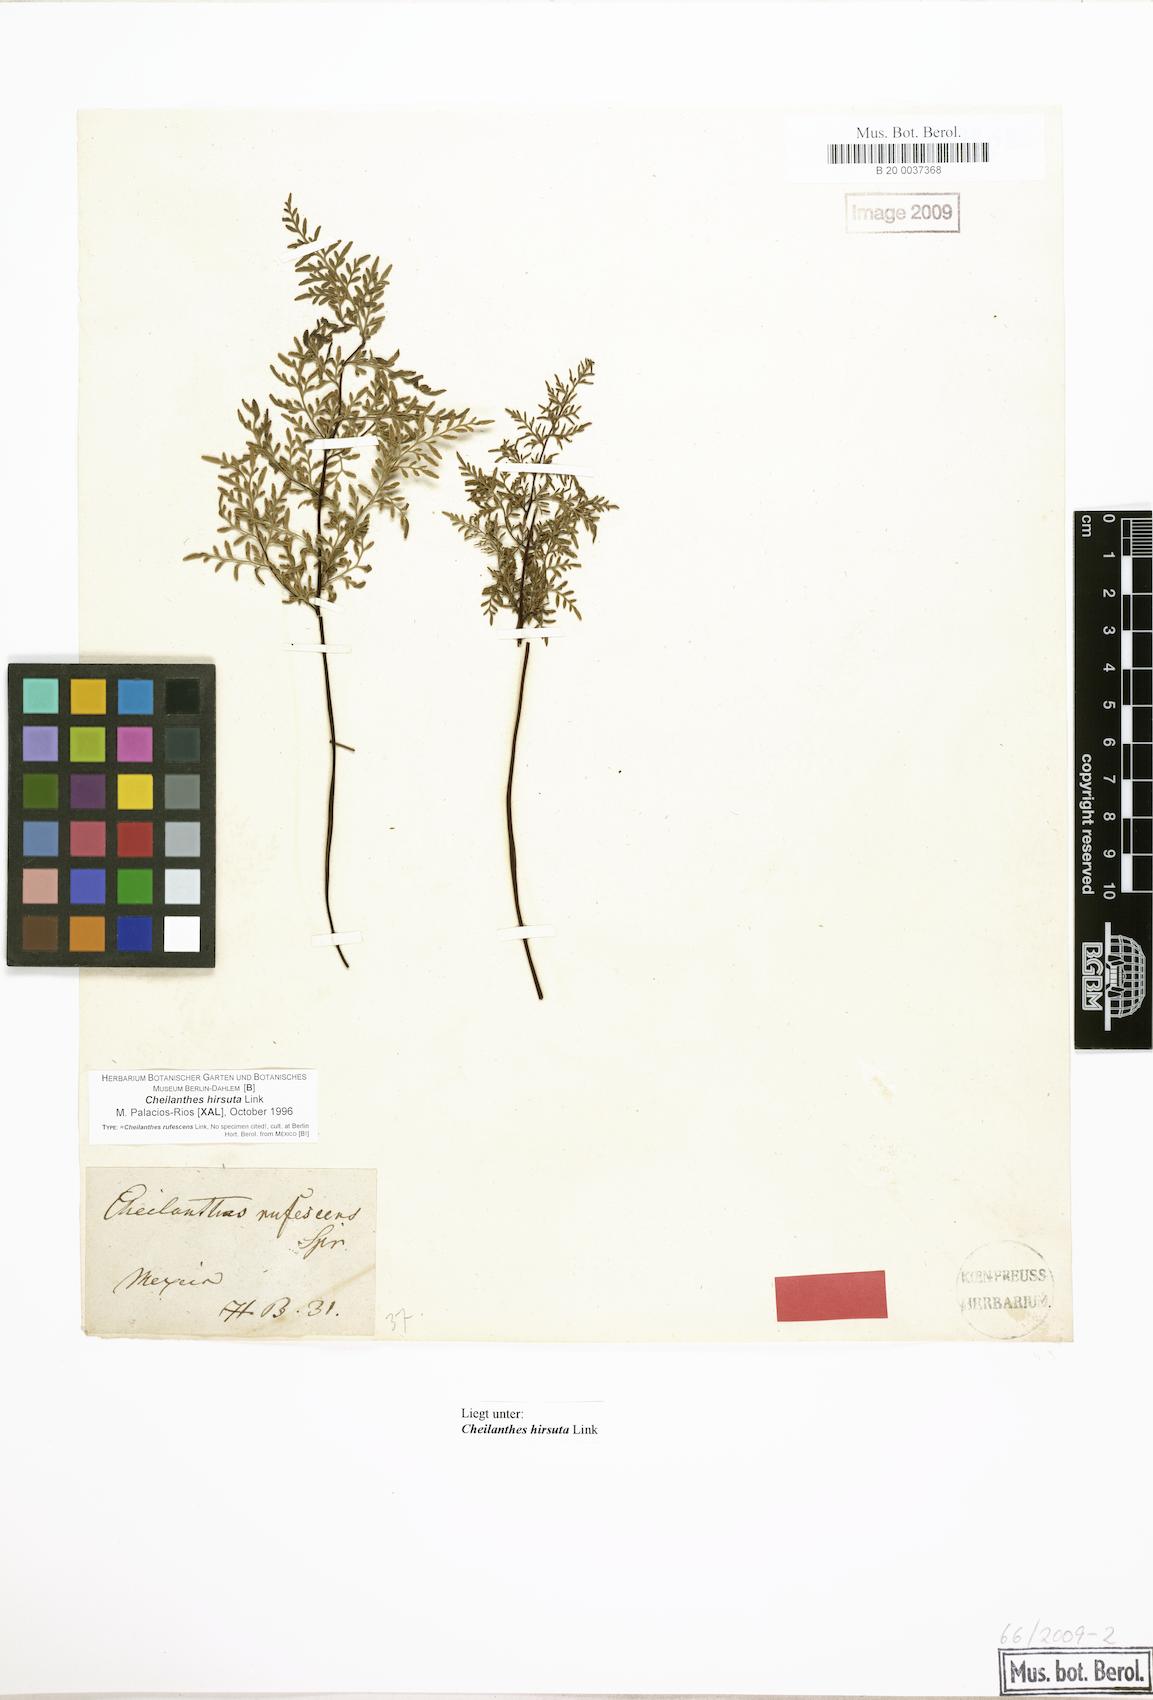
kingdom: Plantae
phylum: Tracheophyta
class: Polypodiopsida
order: Polypodiales
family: Pteridaceae
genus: Gaga
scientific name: Gaga hirsuta
